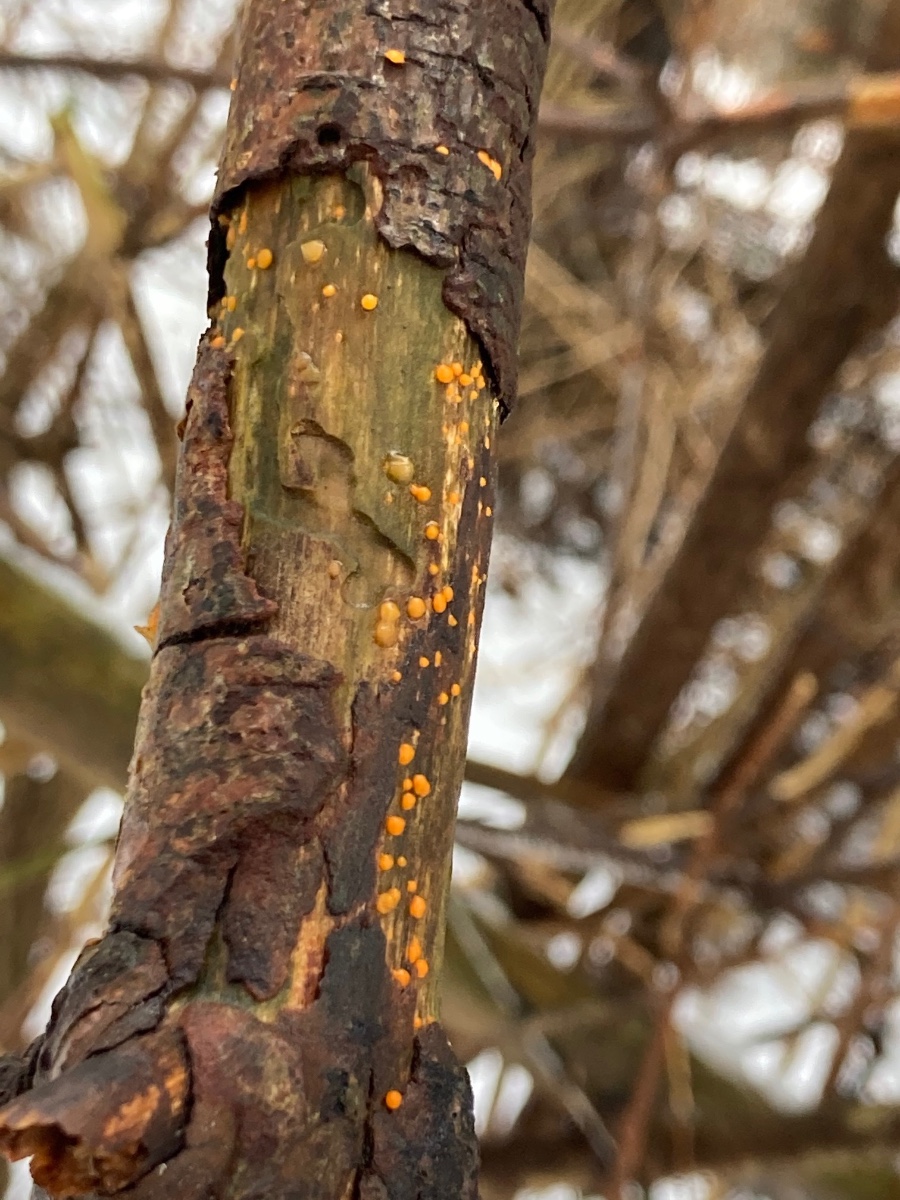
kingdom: Fungi
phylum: Basidiomycota
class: Dacrymycetes
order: Dacrymycetales
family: Dacrymycetaceae
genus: Dacrymyces
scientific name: Dacrymyces stillatus
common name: almindelig tåresvamp
